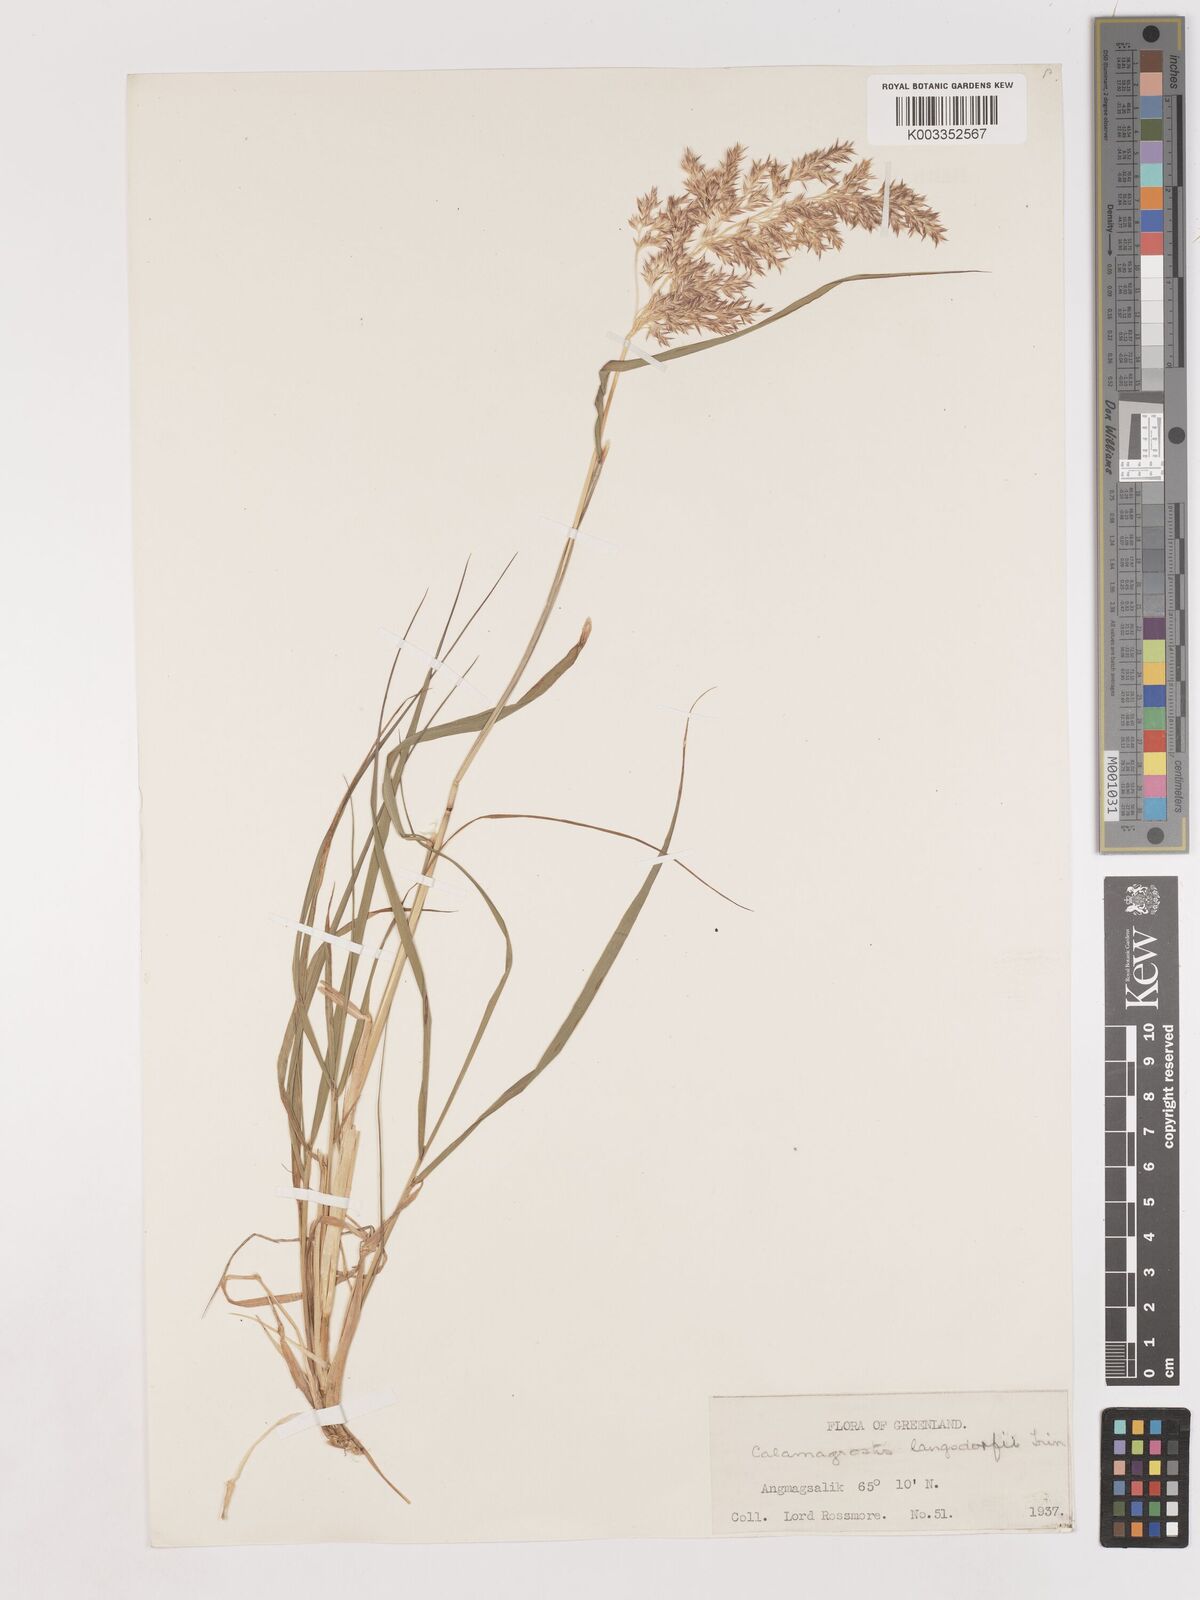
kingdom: Plantae
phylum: Tracheophyta
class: Liliopsida
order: Poales
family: Poaceae
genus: Calamagrostis
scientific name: Calamagrostis canadensis
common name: Canada bluejoint
